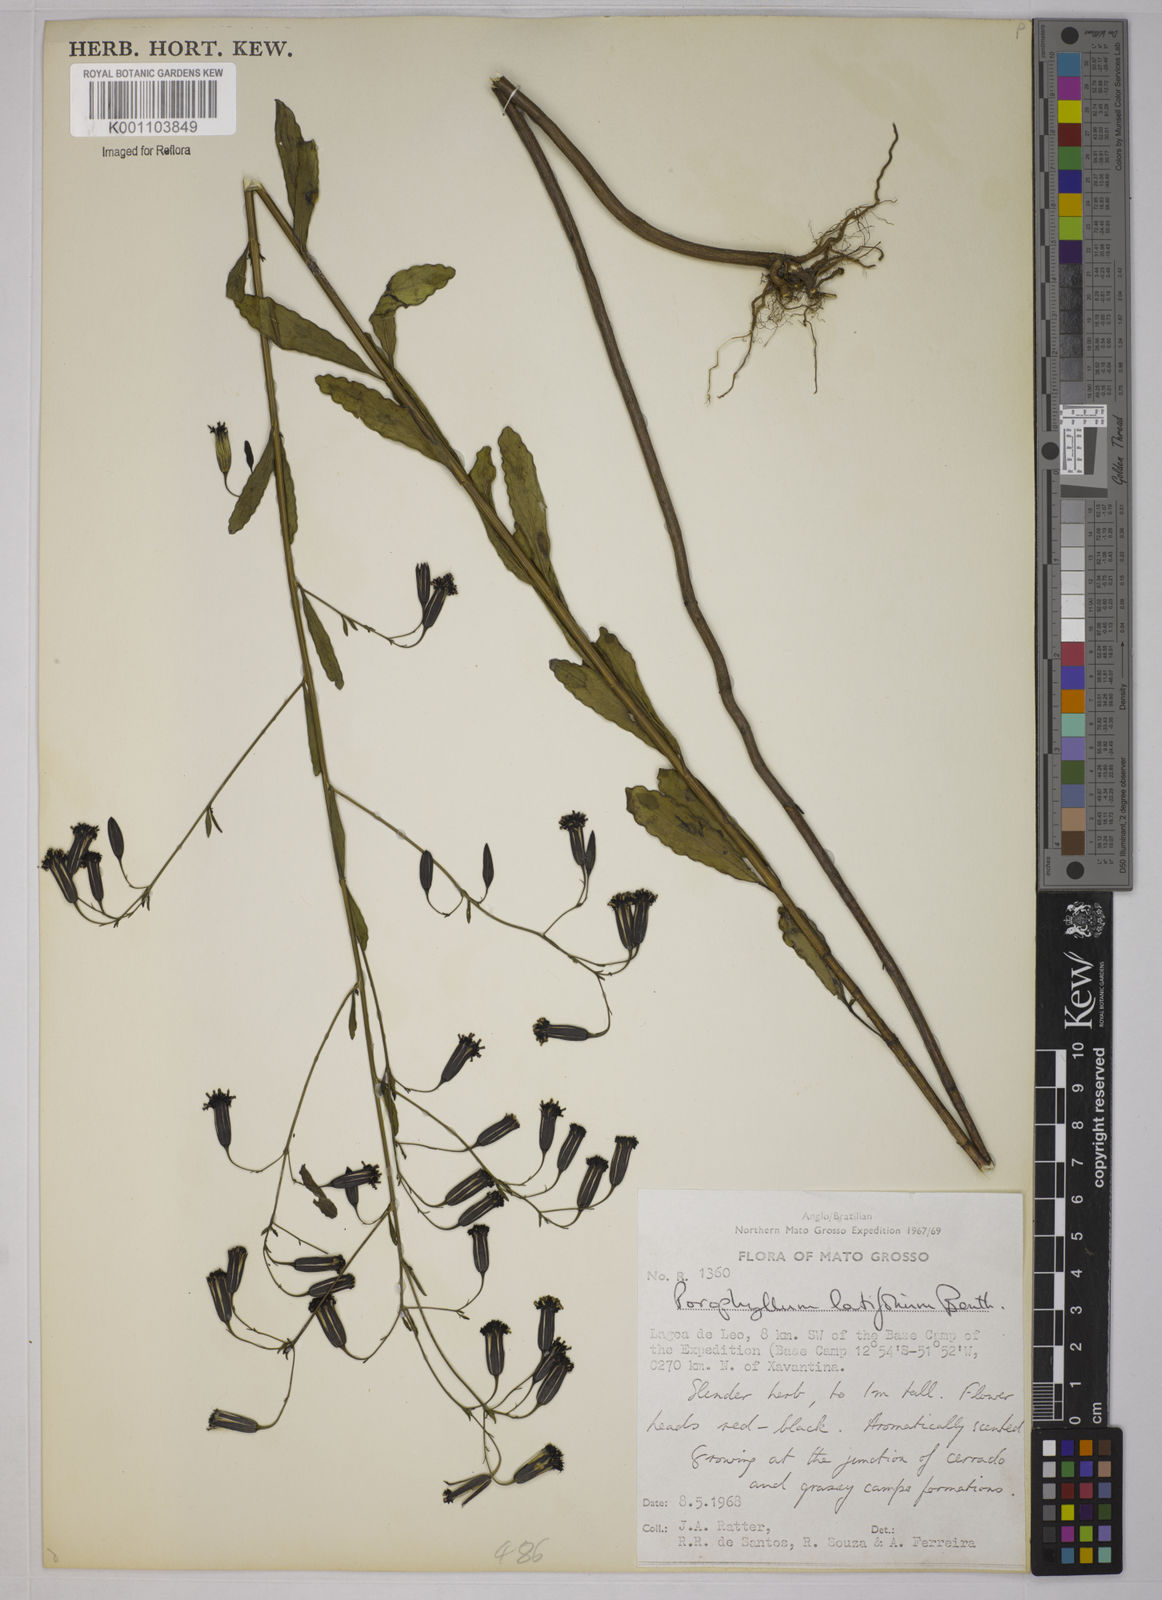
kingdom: Plantae
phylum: Tracheophyta
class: Magnoliopsida
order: Asterales
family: Asteraceae
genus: Porophyllum
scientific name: Porophyllum ruderale
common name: Yerba porosa
